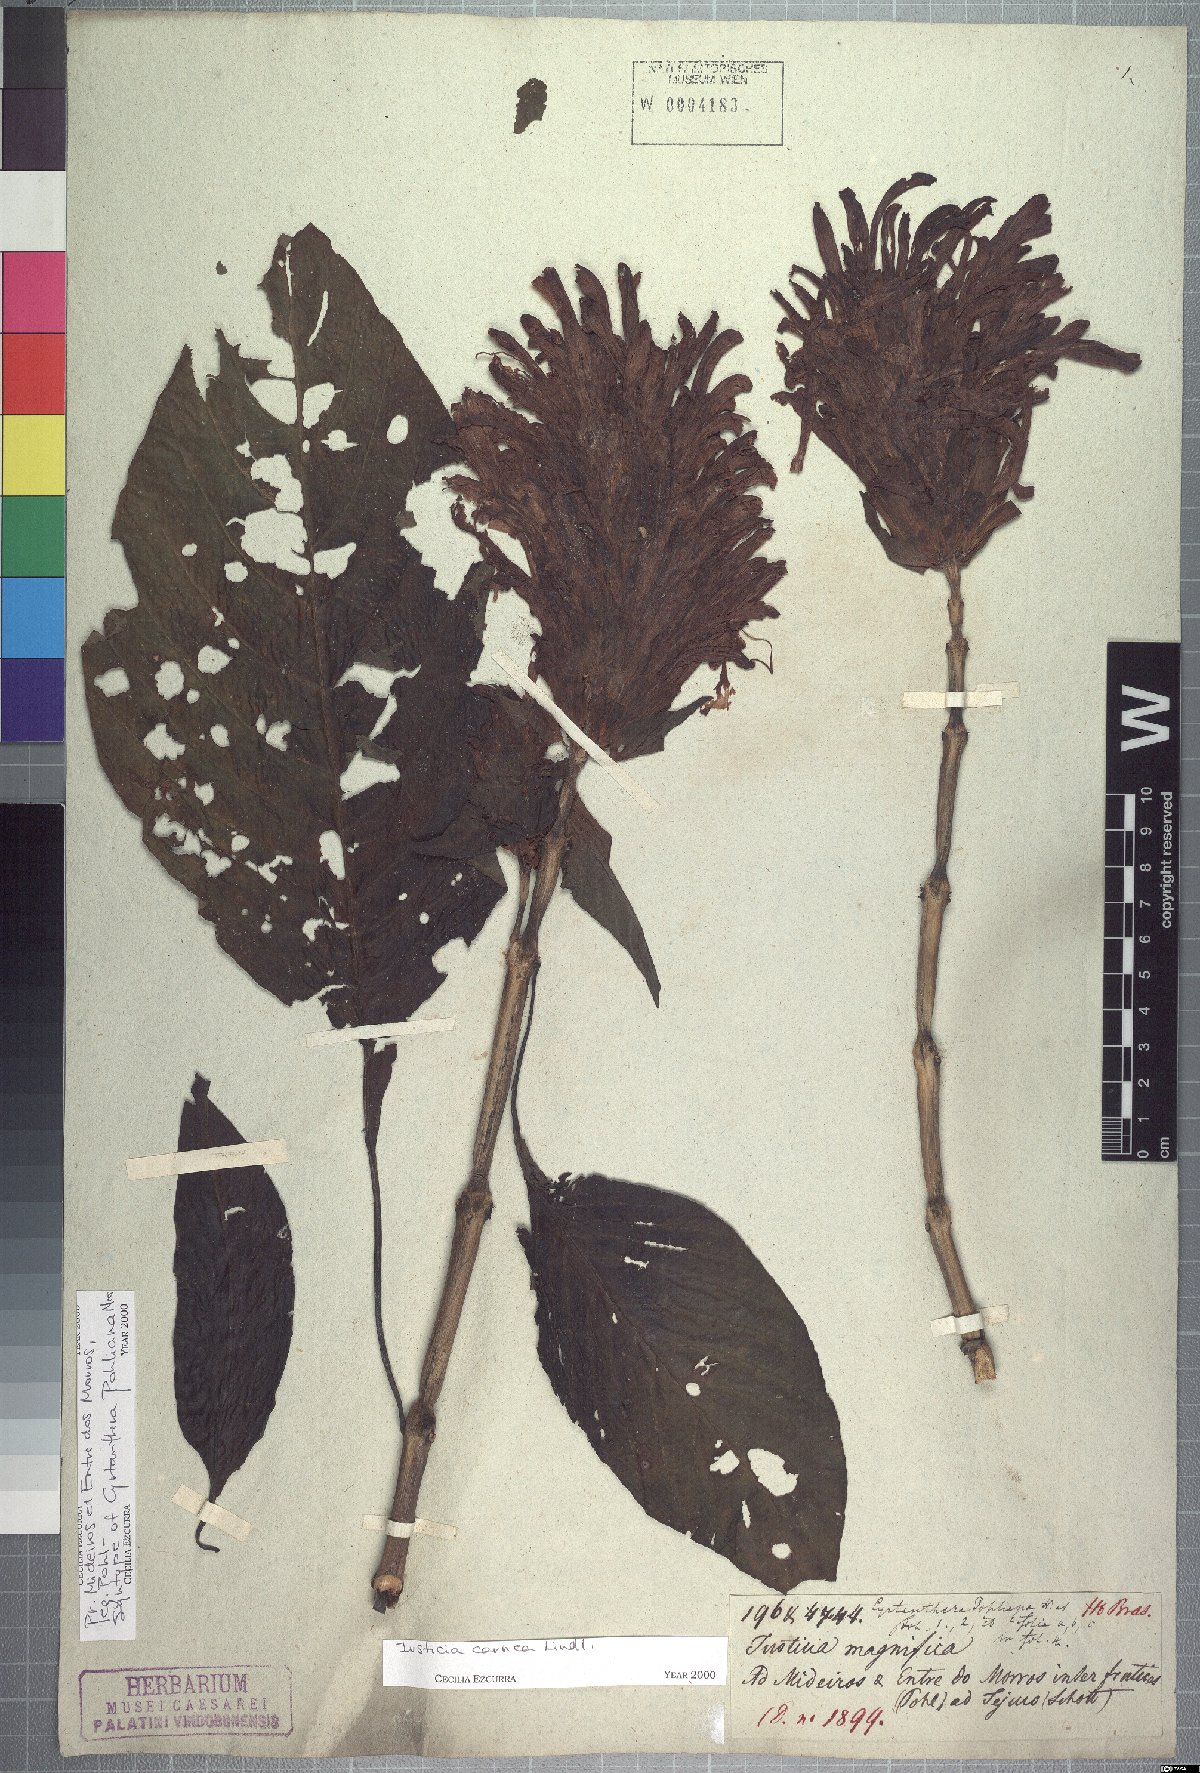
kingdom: Plantae
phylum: Tracheophyta
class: Magnoliopsida
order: Lamiales
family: Acanthaceae
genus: Justicia
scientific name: Justicia carnea
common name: Brazilian-plume
